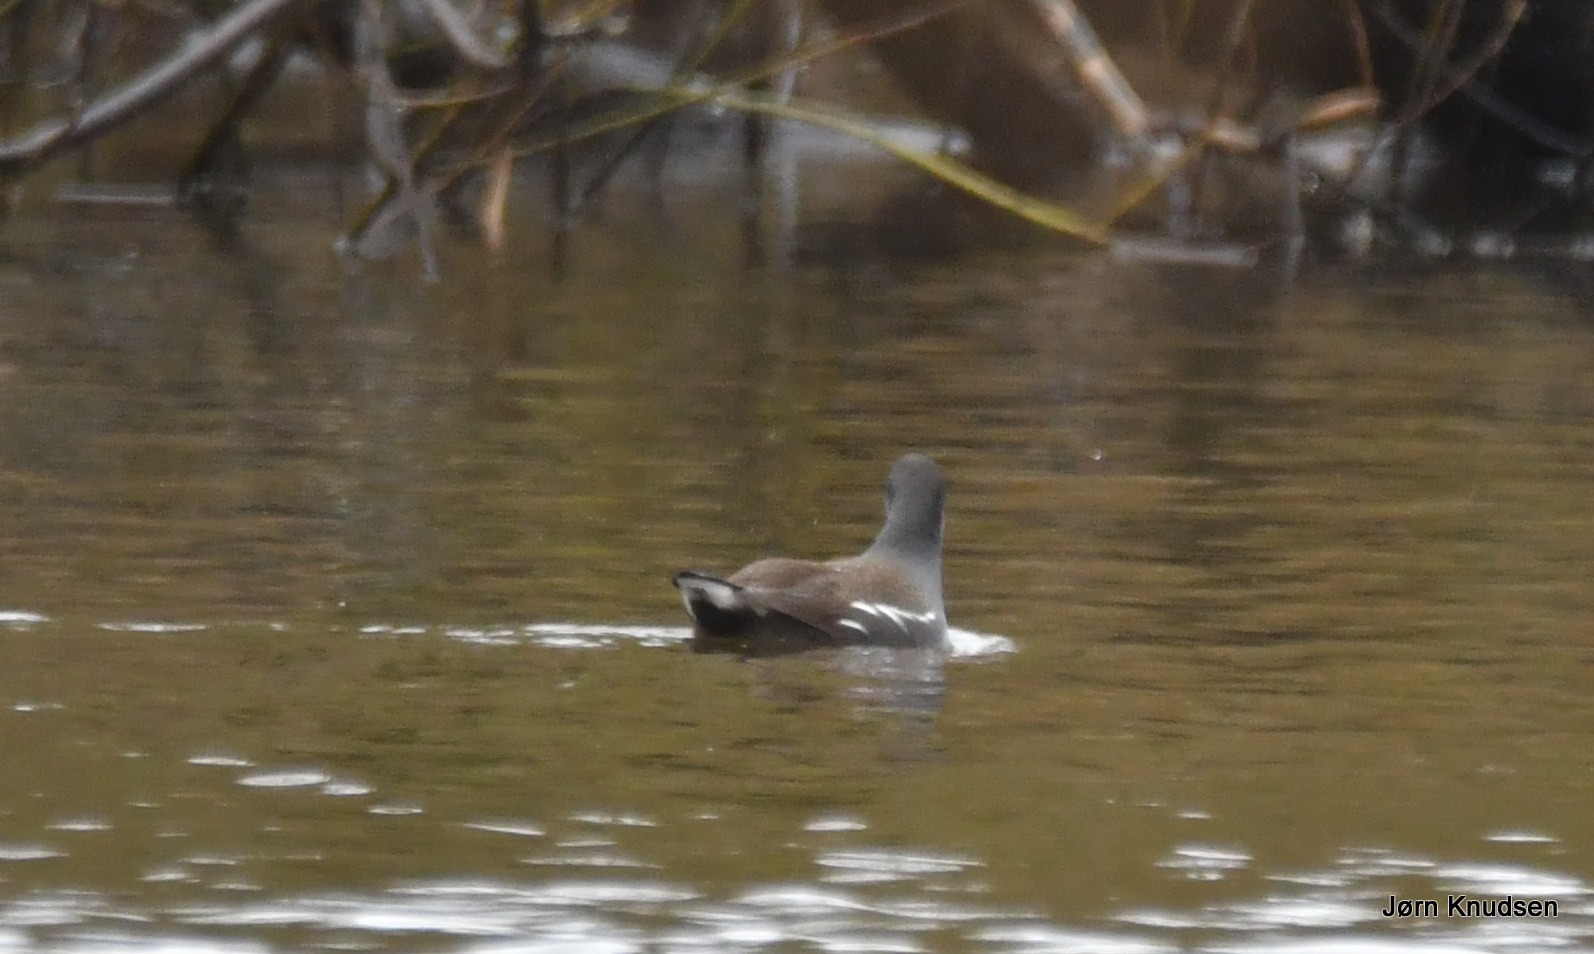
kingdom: Animalia
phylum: Chordata
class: Aves
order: Gruiformes
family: Rallidae
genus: Gallinula
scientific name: Gallinula chloropus
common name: Grønbenet rørhøne
